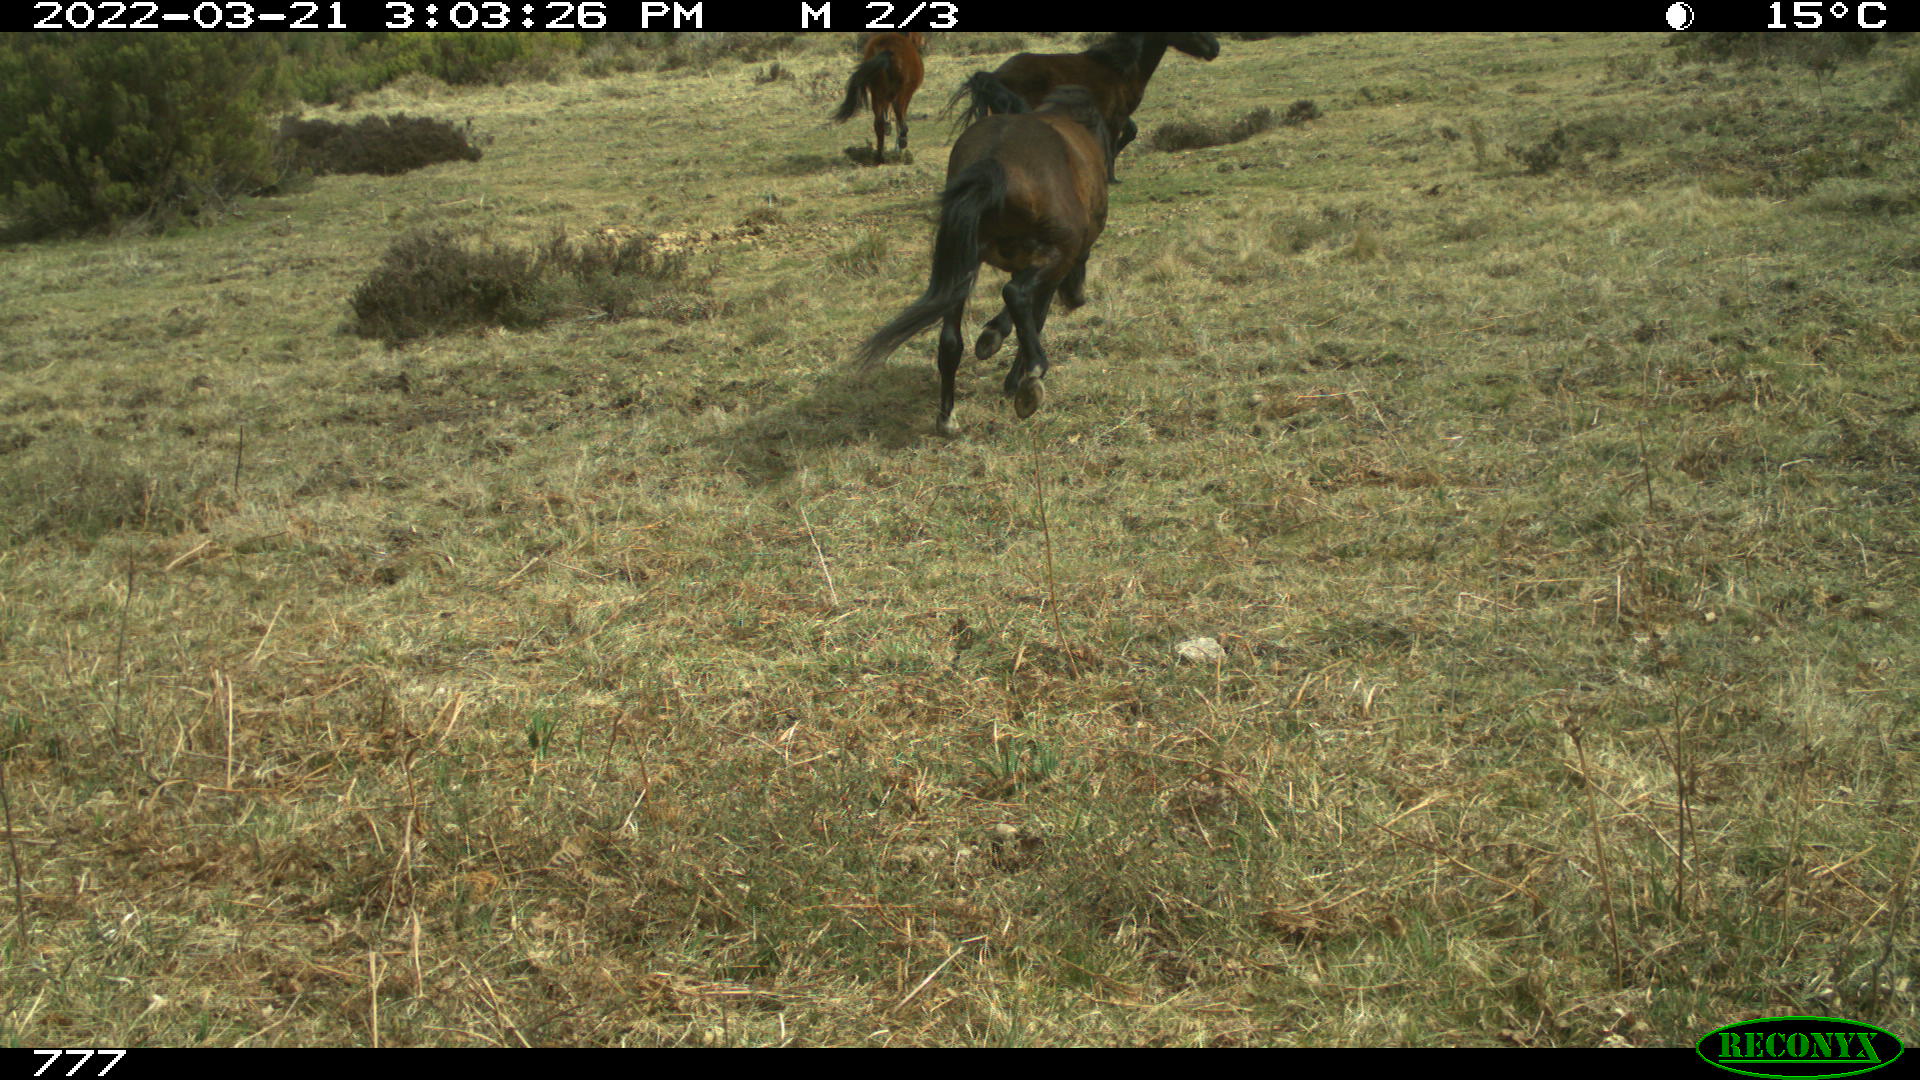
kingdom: Animalia
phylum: Chordata
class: Mammalia
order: Perissodactyla
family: Equidae
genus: Equus
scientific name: Equus caballus
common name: Horse
